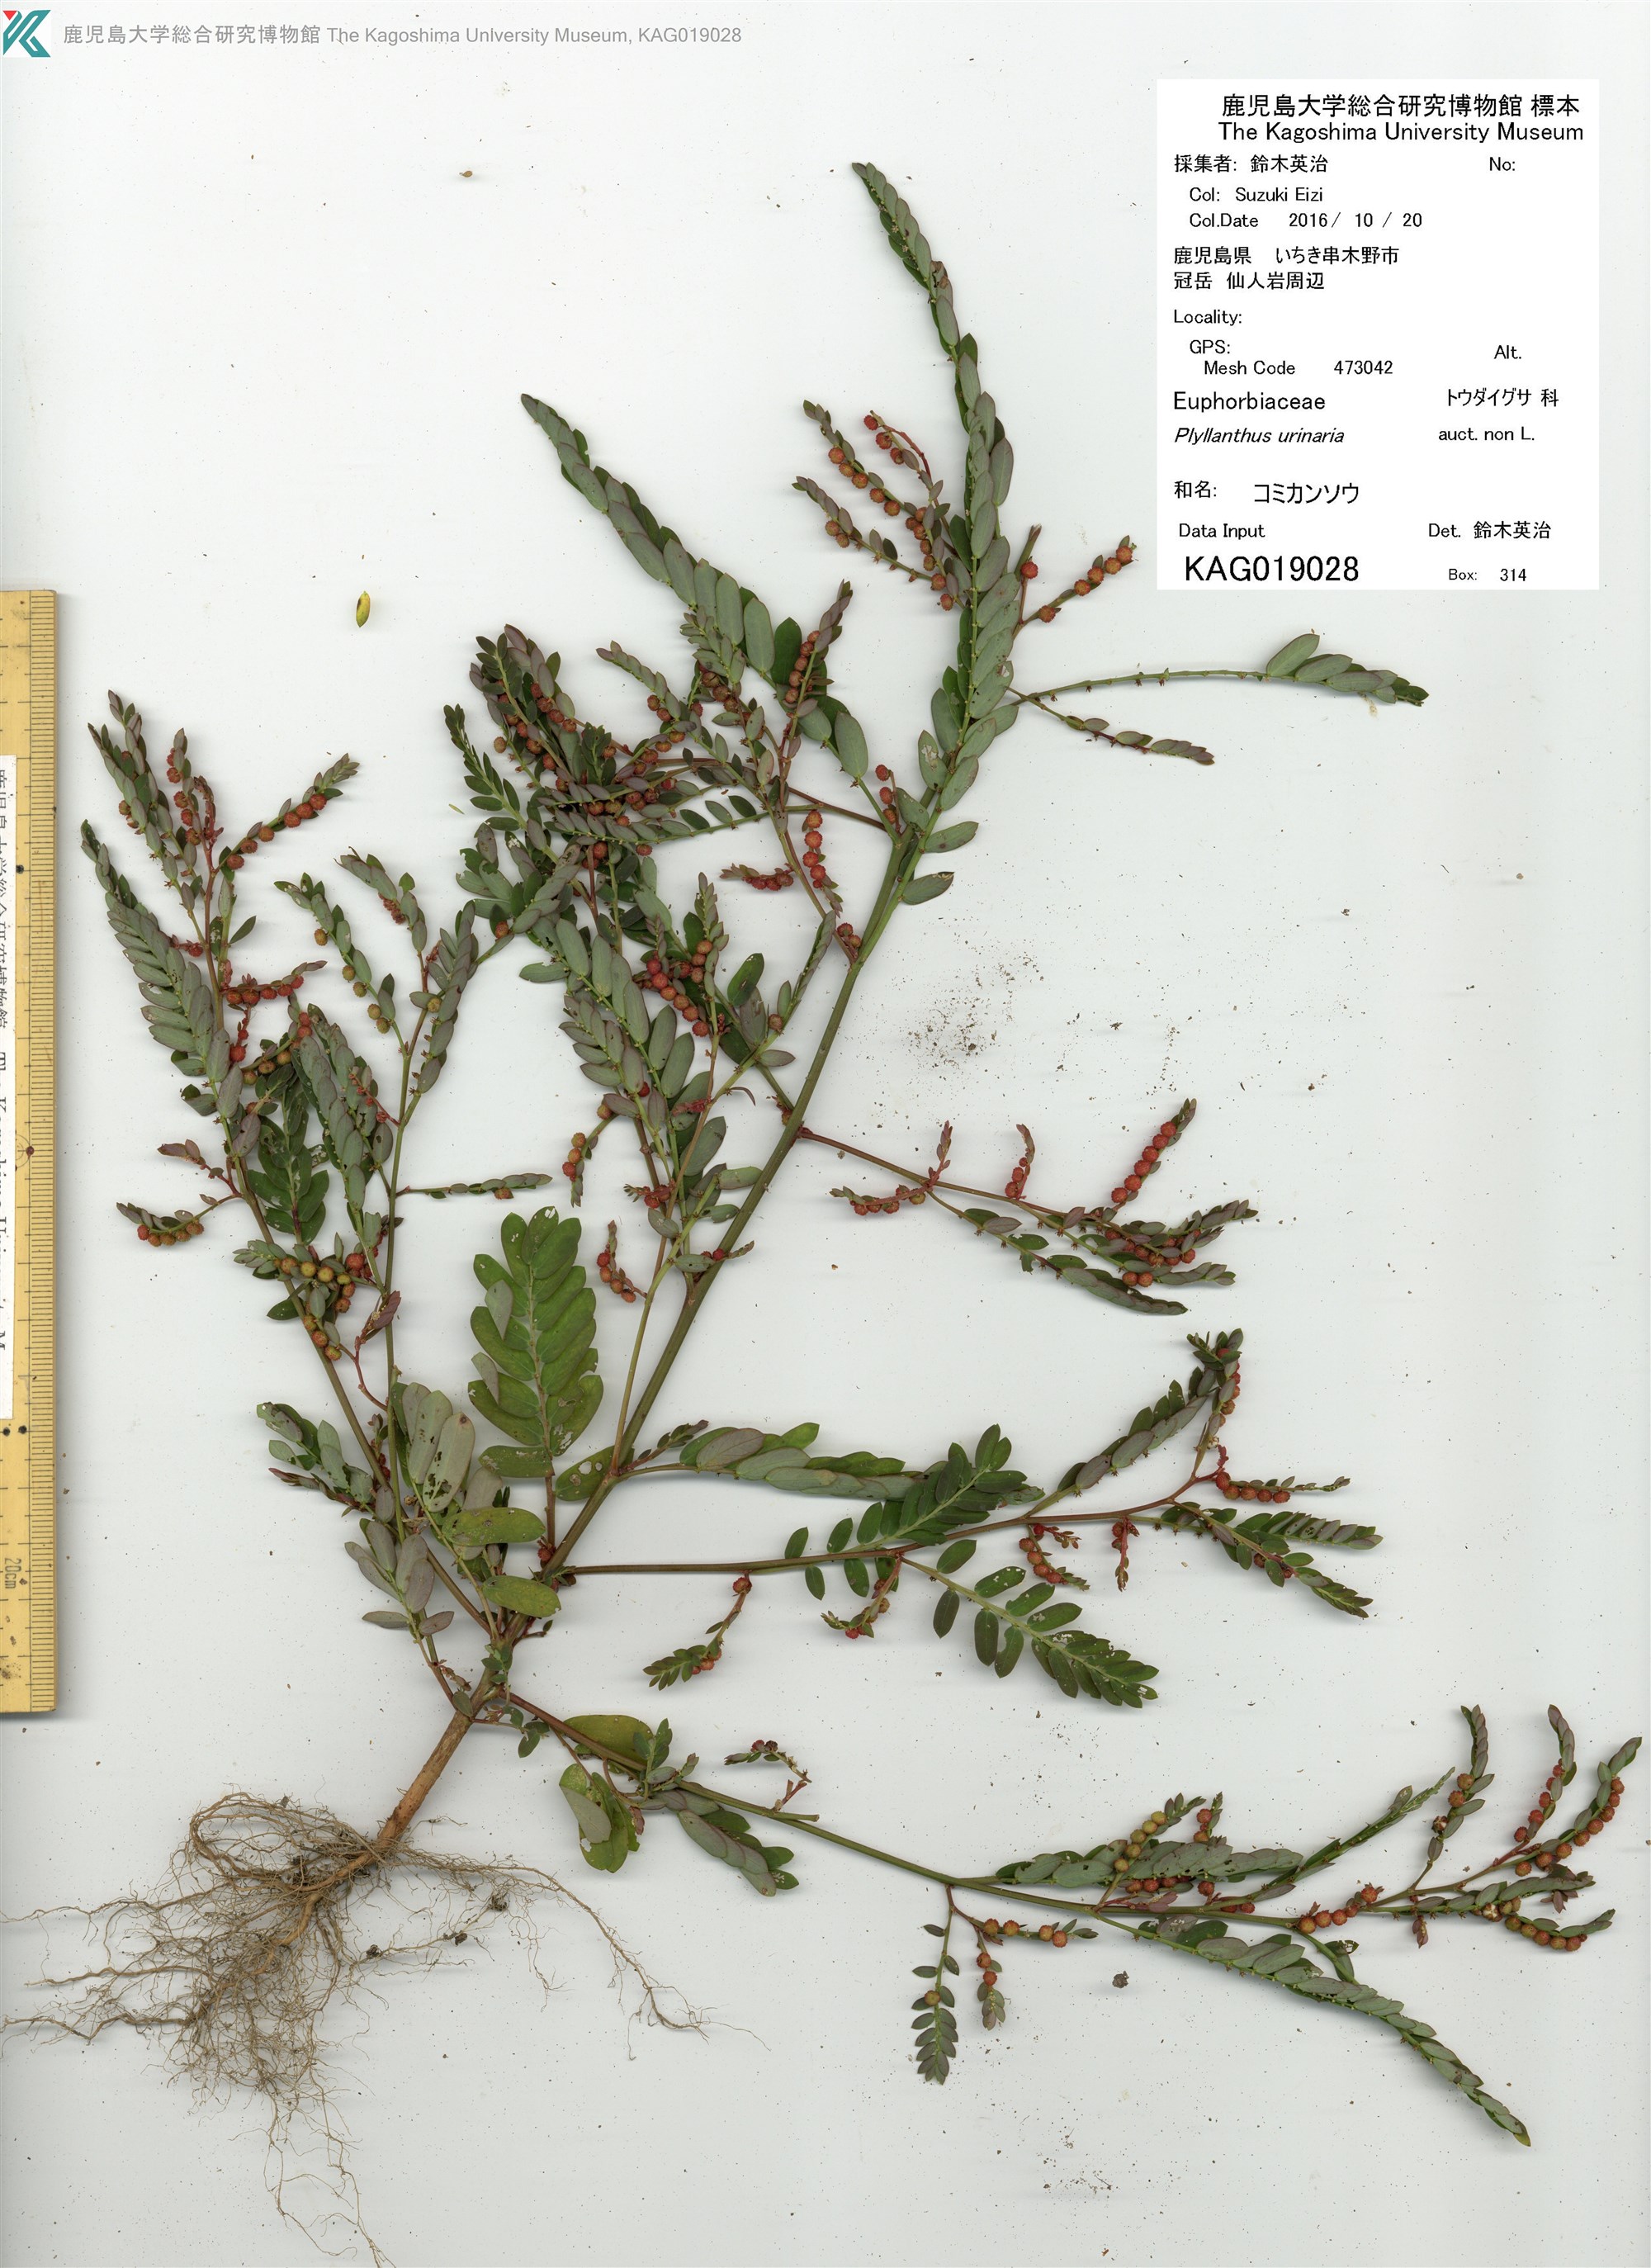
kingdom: Plantae
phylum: Tracheophyta
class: Magnoliopsida
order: Malpighiales
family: Phyllanthaceae
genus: Phyllanthus
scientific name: Phyllanthus urinaria
